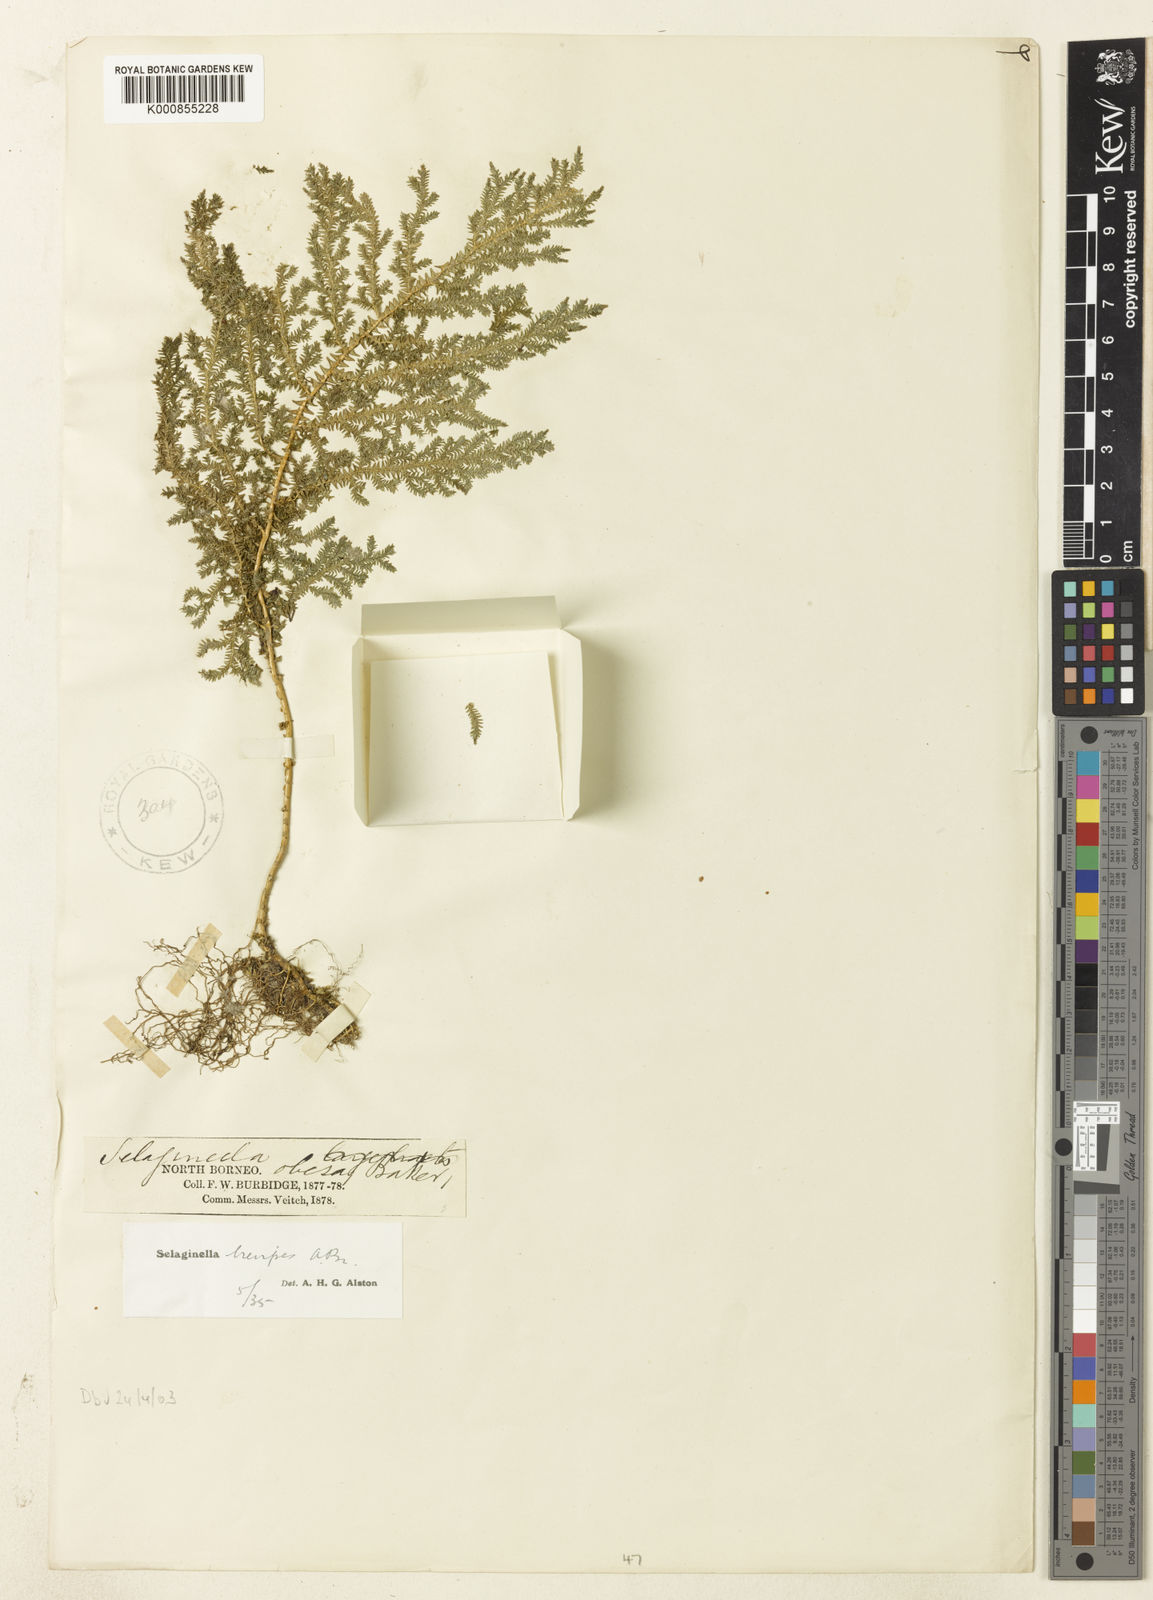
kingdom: Plantae
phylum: Tracheophyta
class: Lycopodiopsida
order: Selaginellales
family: Selaginellaceae
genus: Selaginella
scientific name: Selaginella
